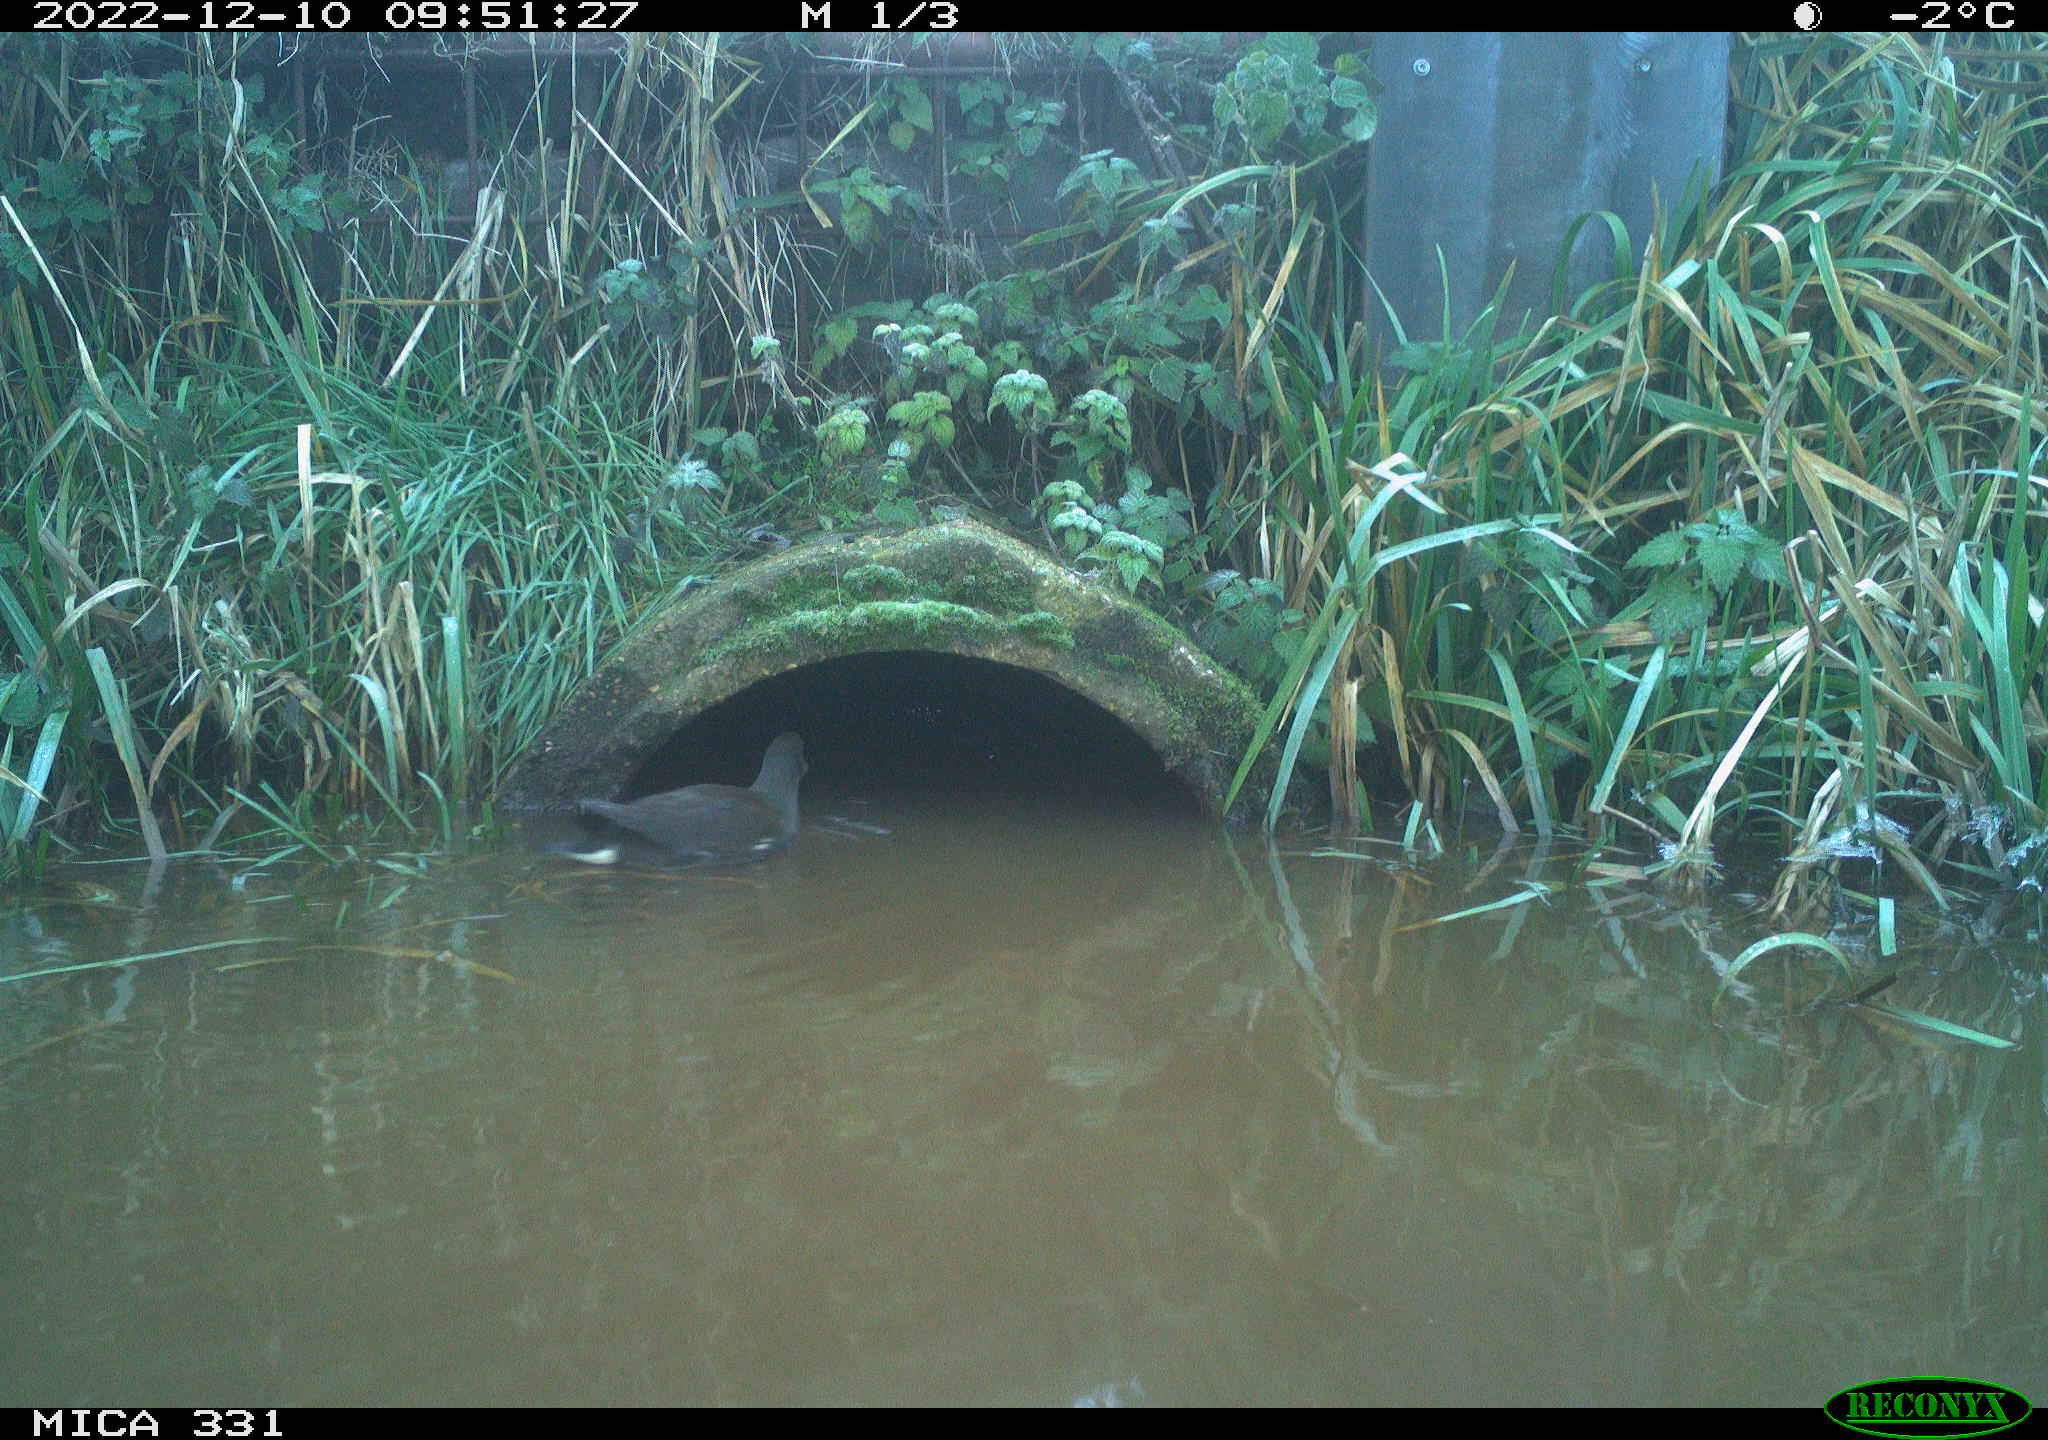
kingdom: Animalia
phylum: Chordata
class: Aves
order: Gruiformes
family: Rallidae
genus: Gallinula
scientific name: Gallinula chloropus
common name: Common moorhen
